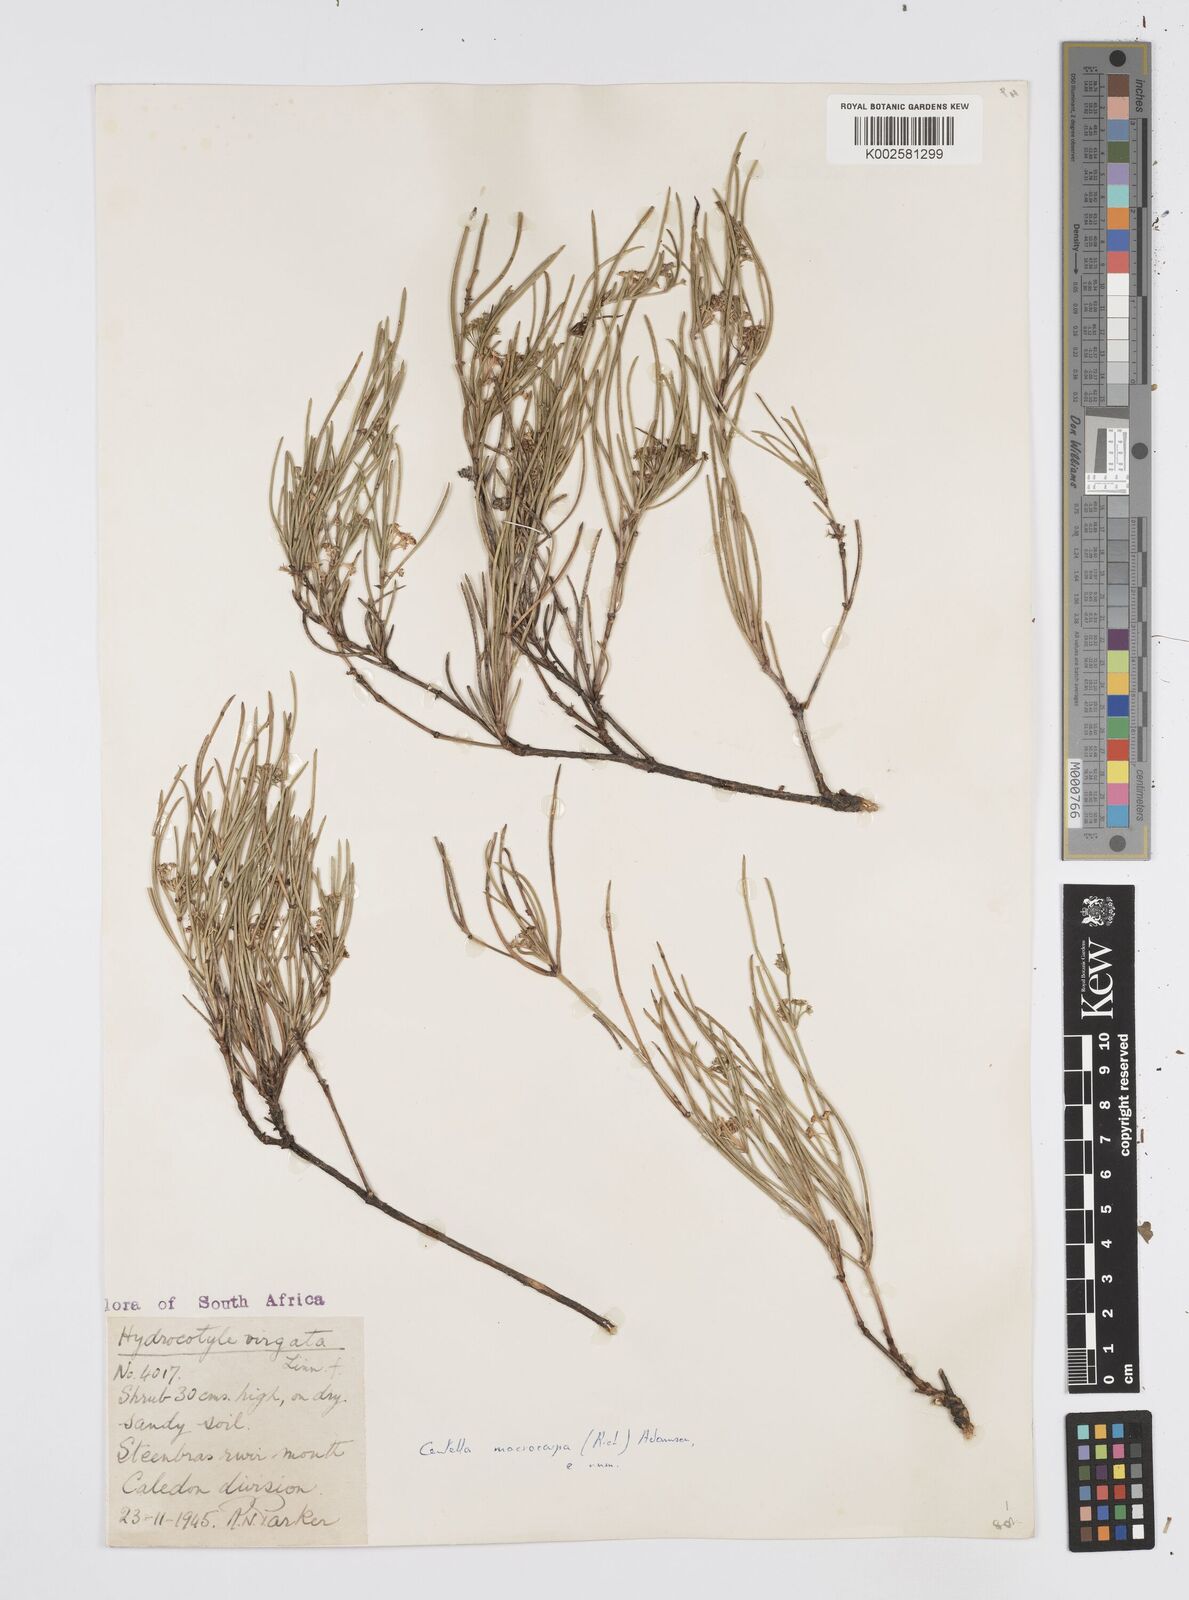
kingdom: Plantae
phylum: Tracheophyta
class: Magnoliopsida
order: Apiales
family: Apiaceae
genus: Centella
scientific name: Centella macrocarpa
